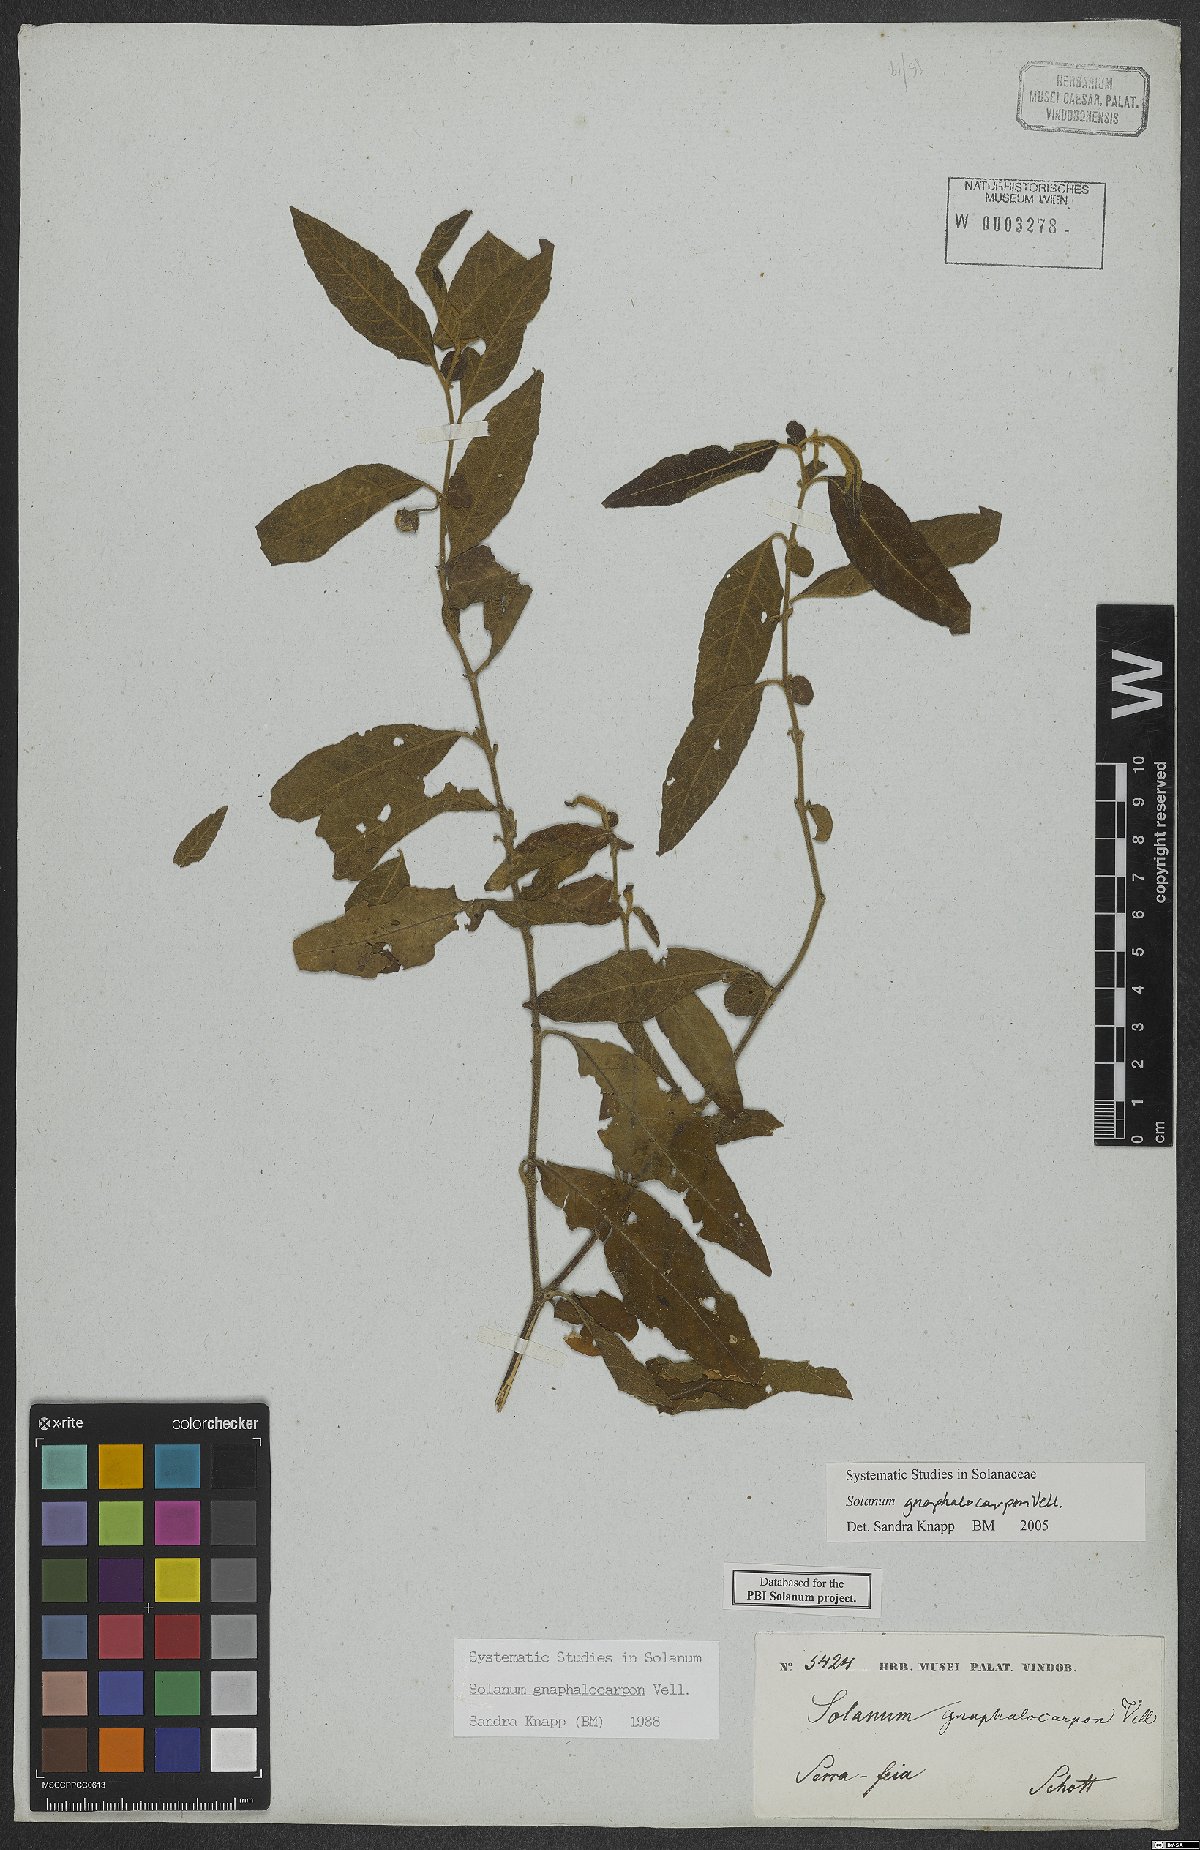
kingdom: Plantae
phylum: Tracheophyta
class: Magnoliopsida
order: Solanales
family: Solanaceae
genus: Solanum
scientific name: Solanum gnaphalocarpum
